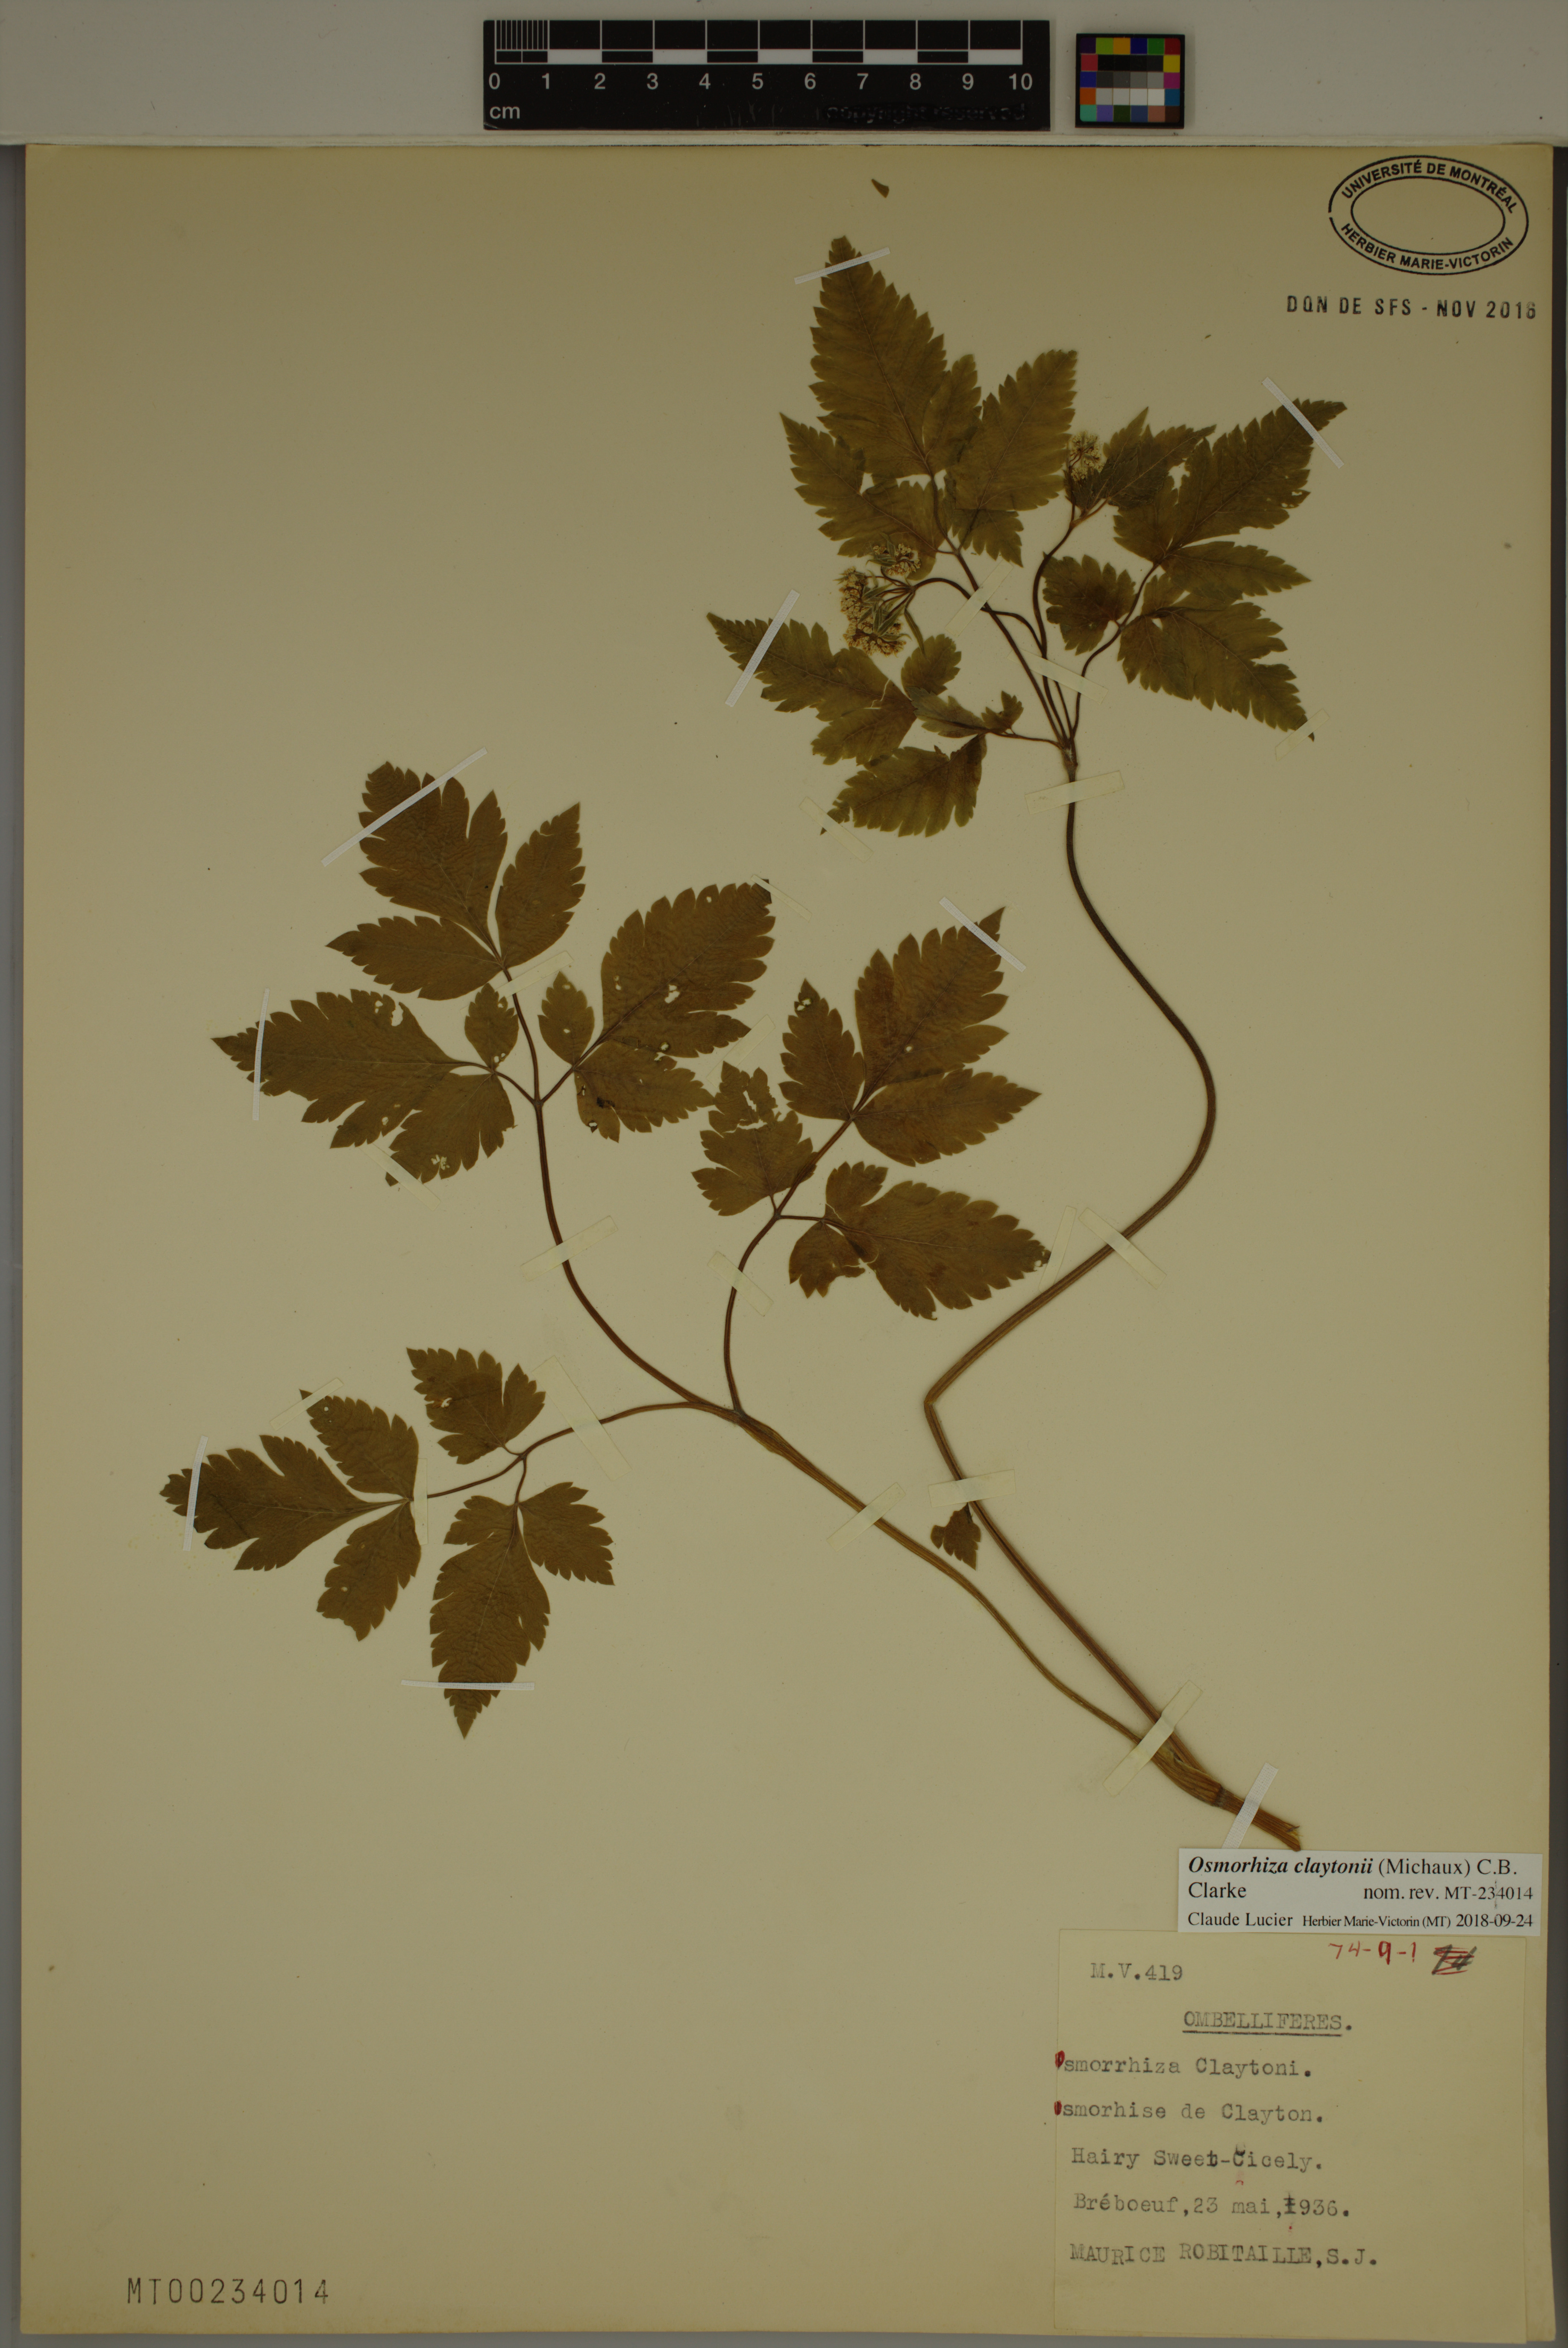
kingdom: Plantae
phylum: Tracheophyta
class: Magnoliopsida
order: Apiales
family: Apiaceae
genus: Osmorhiza
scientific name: Osmorhiza claytonii
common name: Hairy sweet cicely
